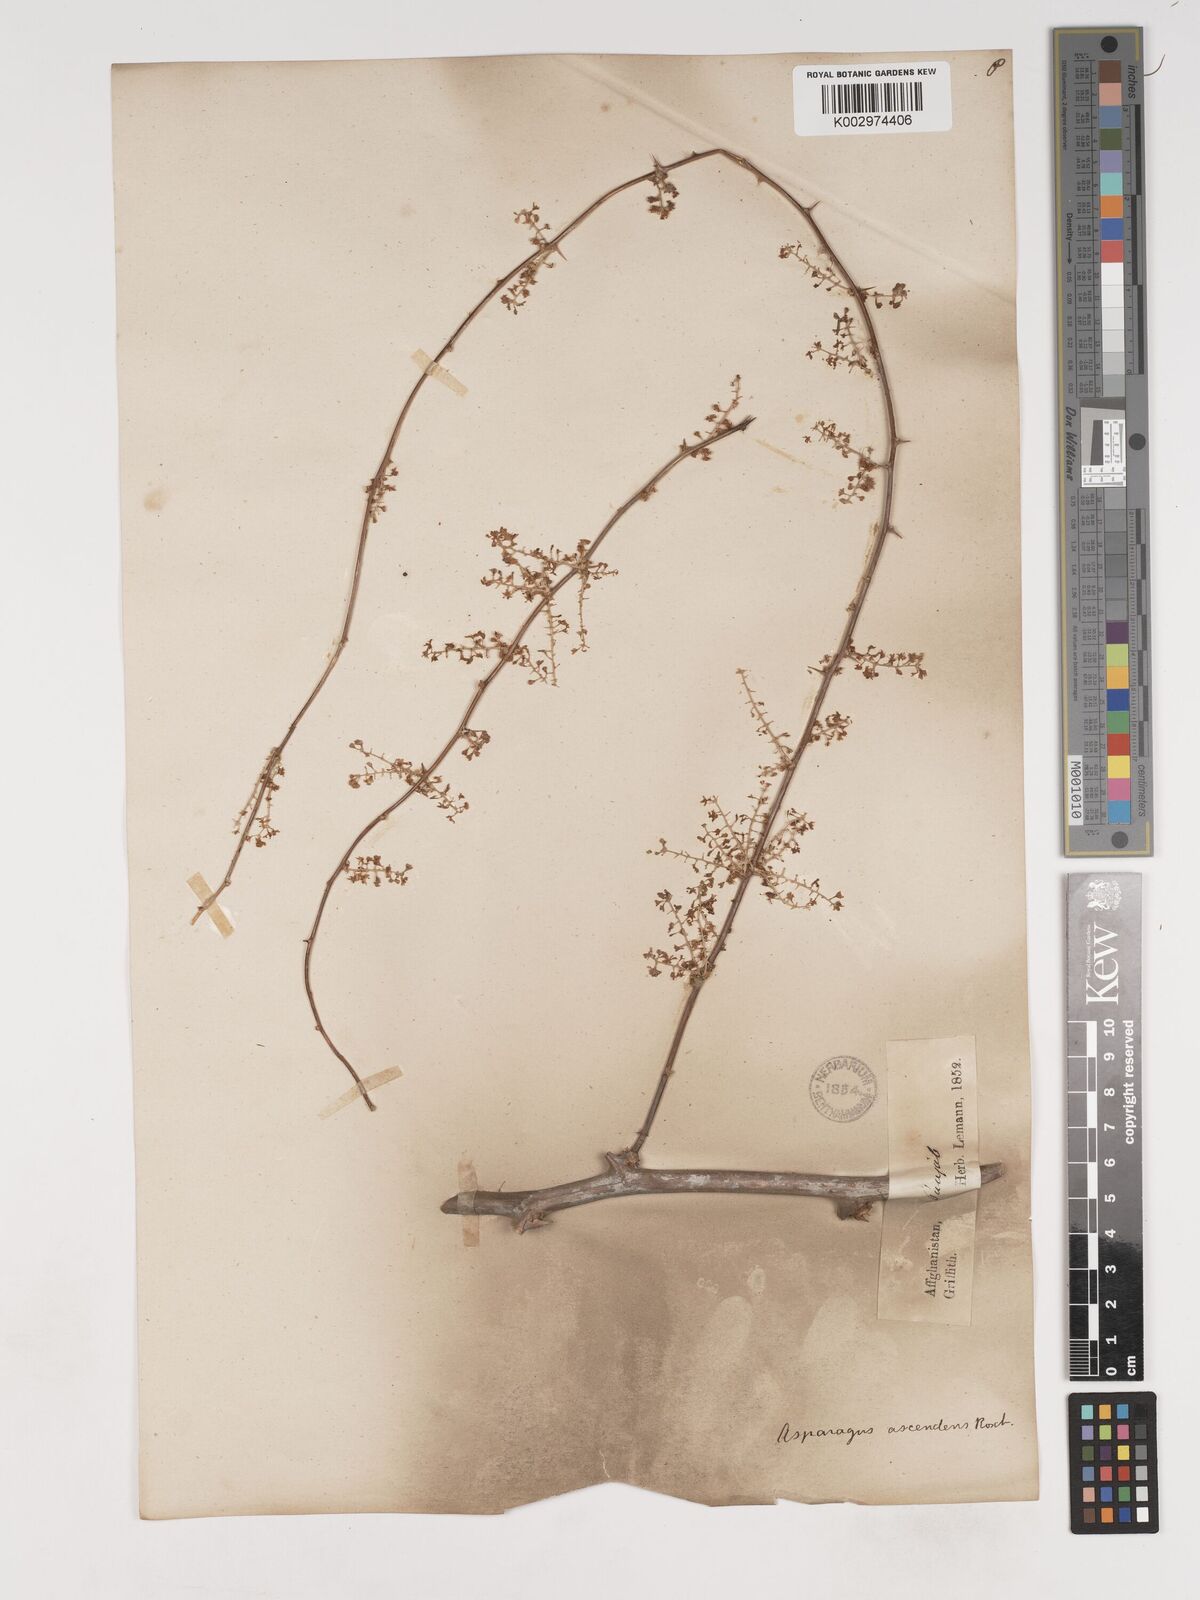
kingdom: Plantae
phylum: Tracheophyta
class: Liliopsida
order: Asparagales
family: Asparagaceae
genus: Asparagus
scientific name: Asparagus adscendens
